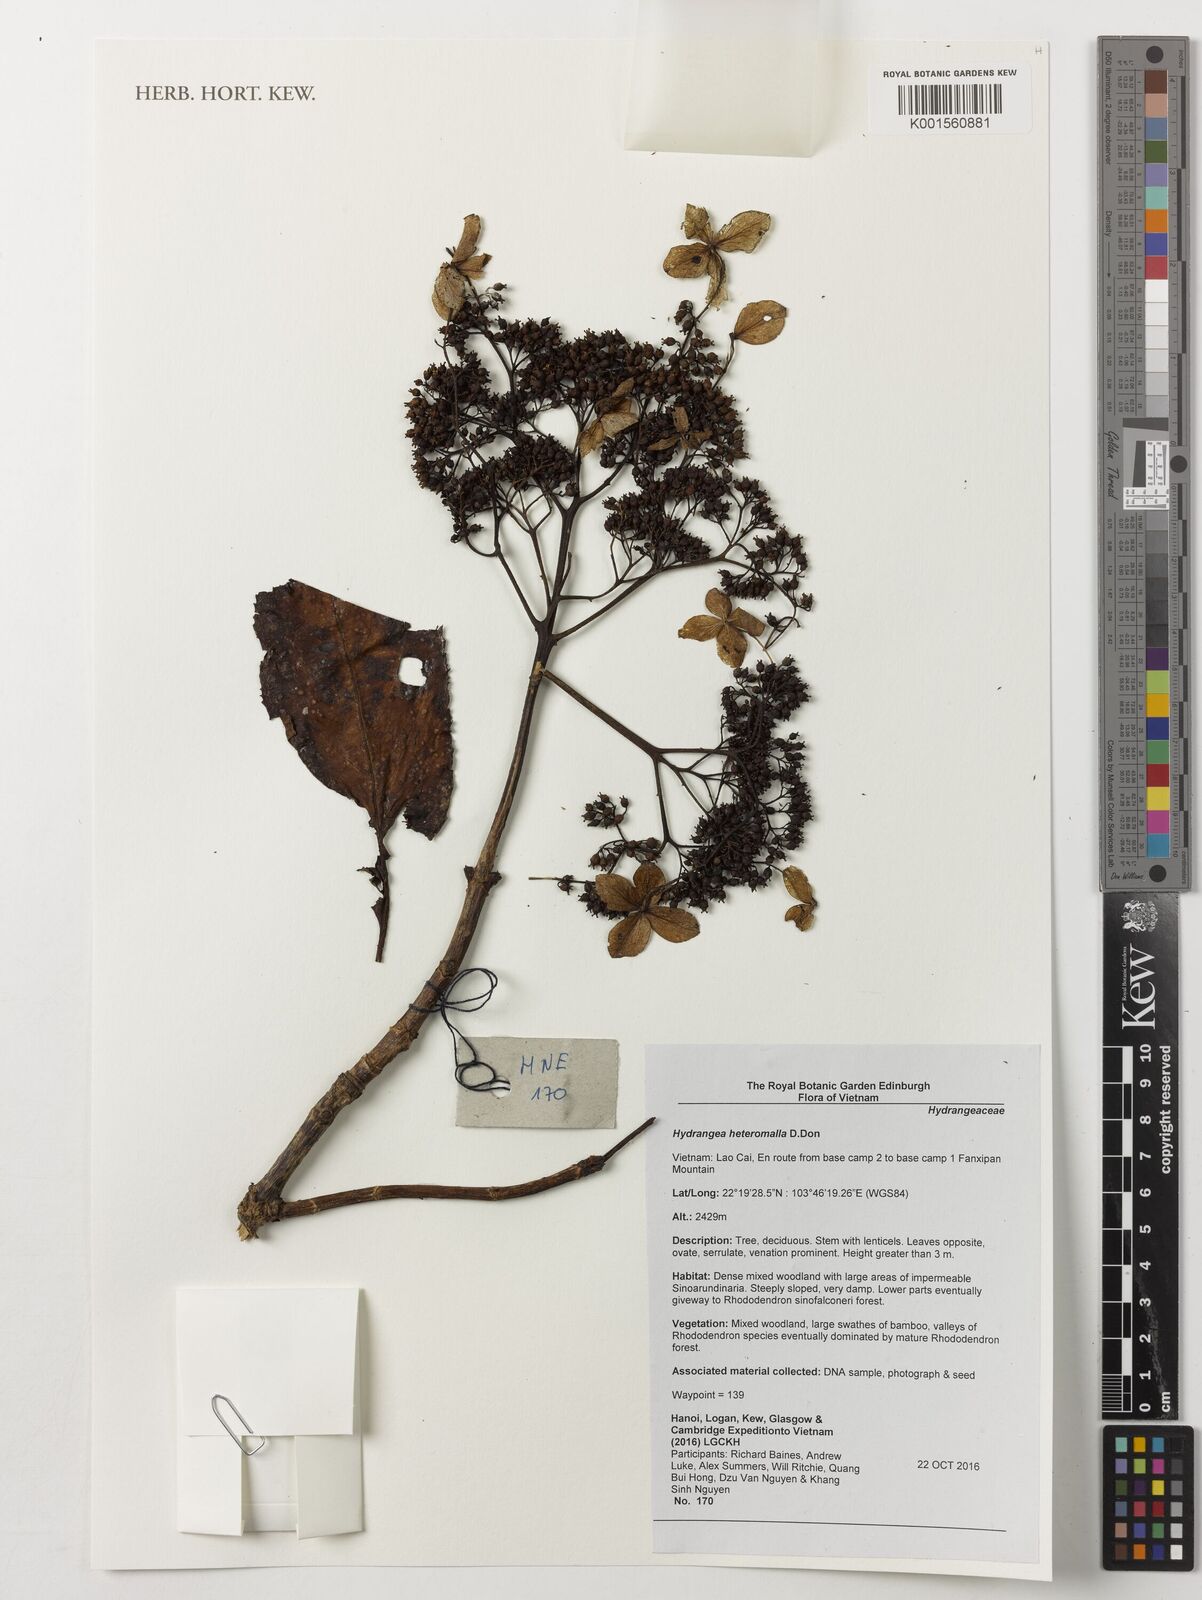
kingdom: Plantae
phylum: Tracheophyta
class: Magnoliopsida
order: Cornales
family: Hydrangeaceae
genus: Hydrangea
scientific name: Hydrangea heteromalla
